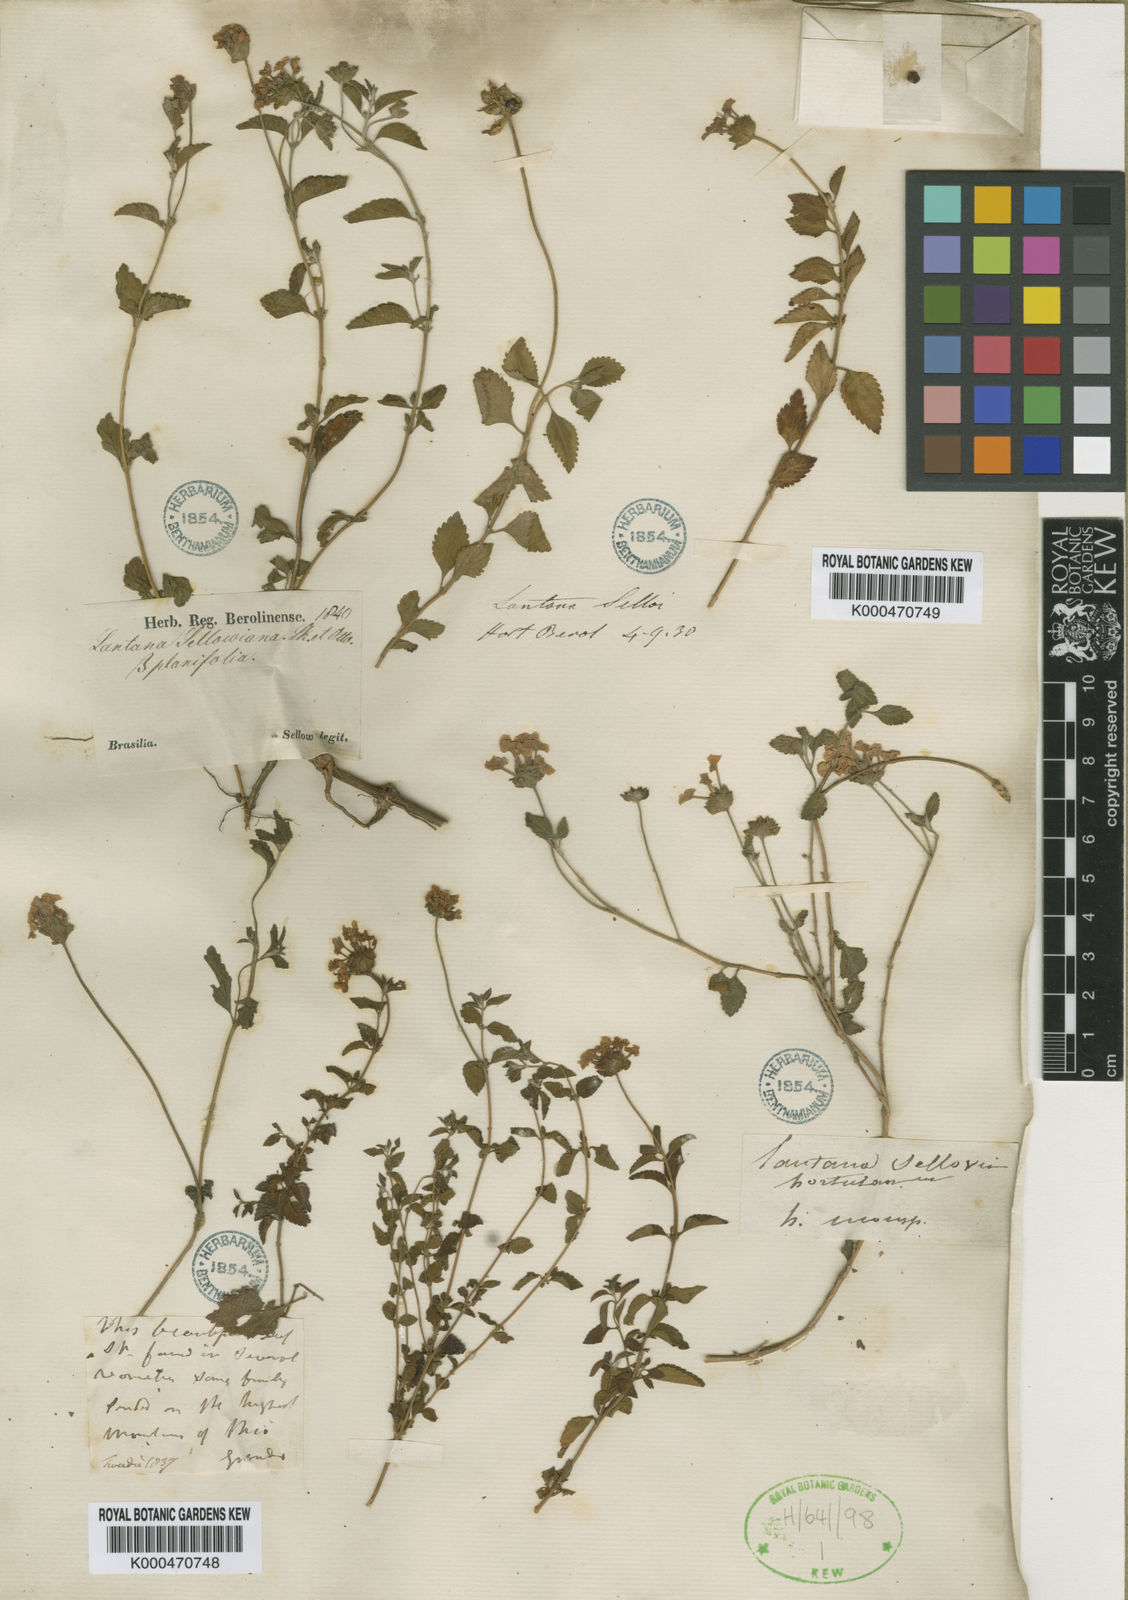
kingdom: Plantae
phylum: Tracheophyta
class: Magnoliopsida
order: Lamiales
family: Verbenaceae
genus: Lantana
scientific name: Lantana montevidensis
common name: Trailing shrubverbena
